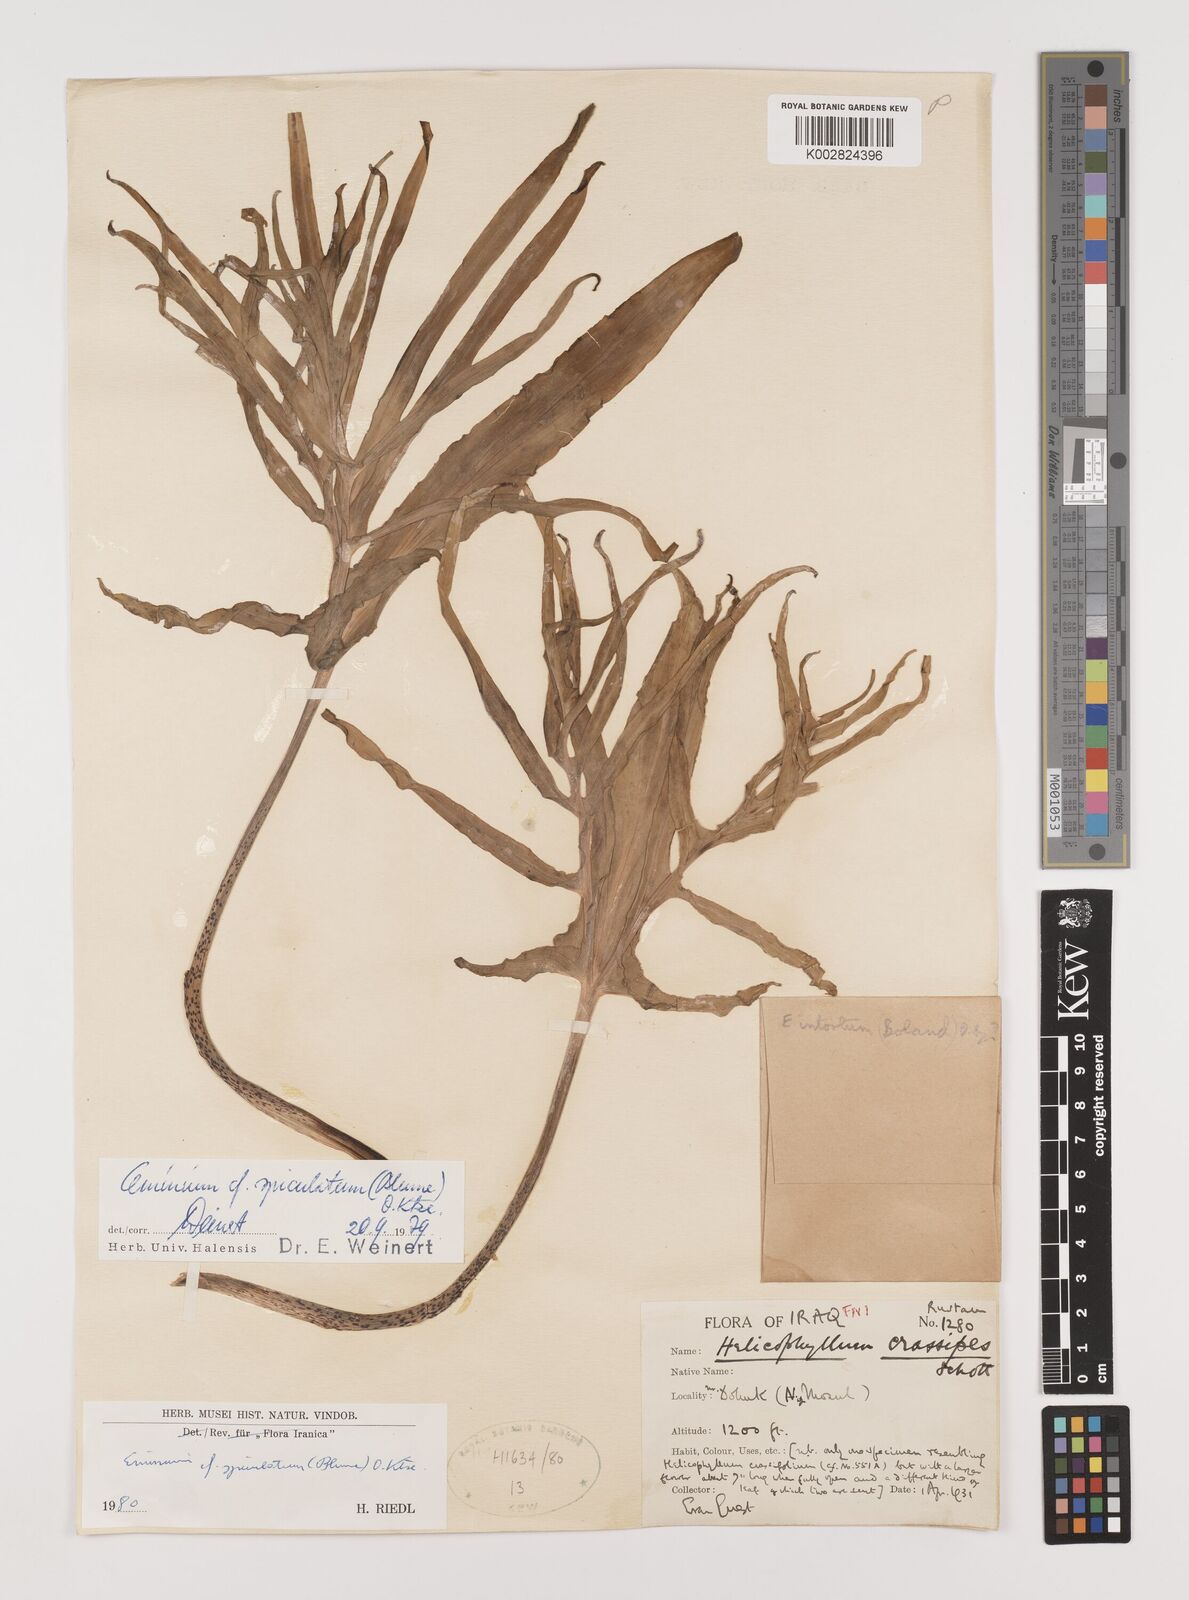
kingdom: Plantae
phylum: Tracheophyta
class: Liliopsida
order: Alismatales
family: Araceae
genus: Eminium
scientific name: Eminium spiculatum
